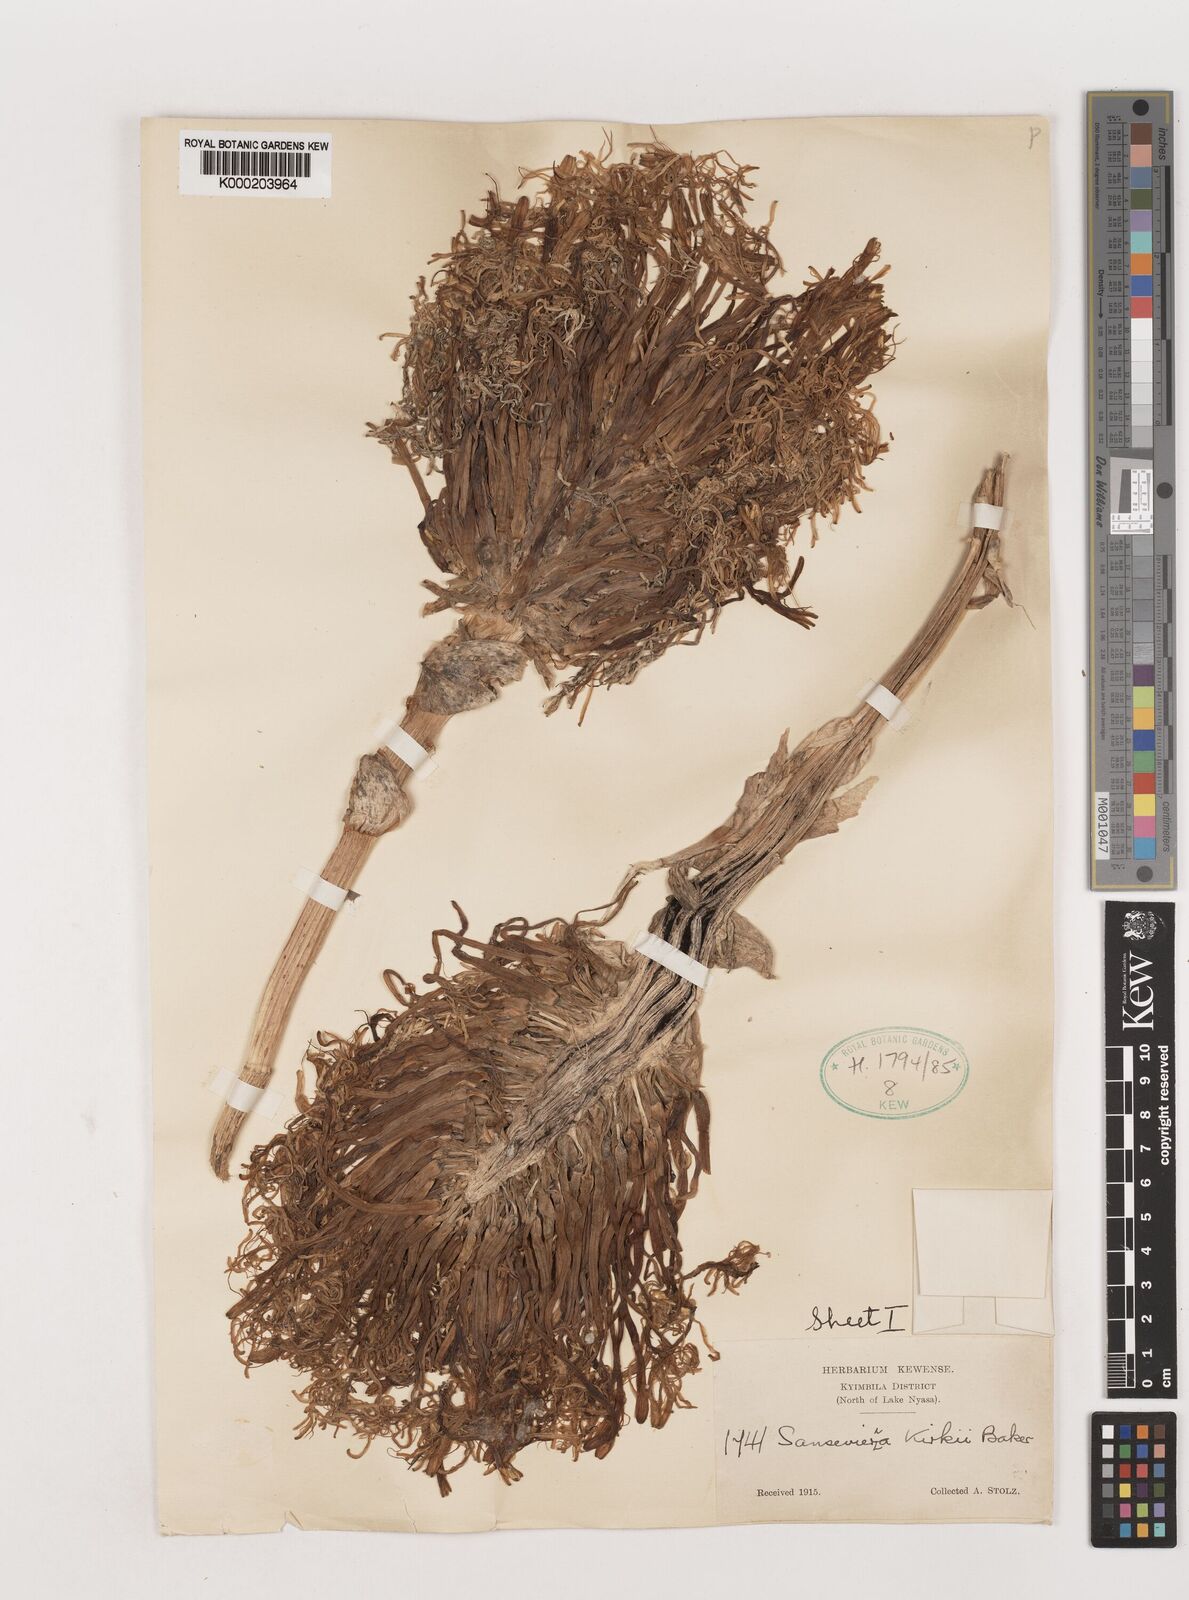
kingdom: Plantae
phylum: Tracheophyta
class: Liliopsida
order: Asparagales
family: Asparagaceae
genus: Dracaena
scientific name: Dracaena testudinea
